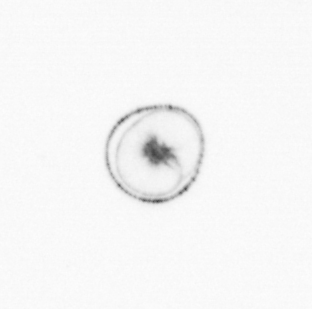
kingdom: Chromista
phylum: Myzozoa
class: Dinophyceae
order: Noctilucales
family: Noctilucaceae
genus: Noctiluca
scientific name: Noctiluca scintillans
